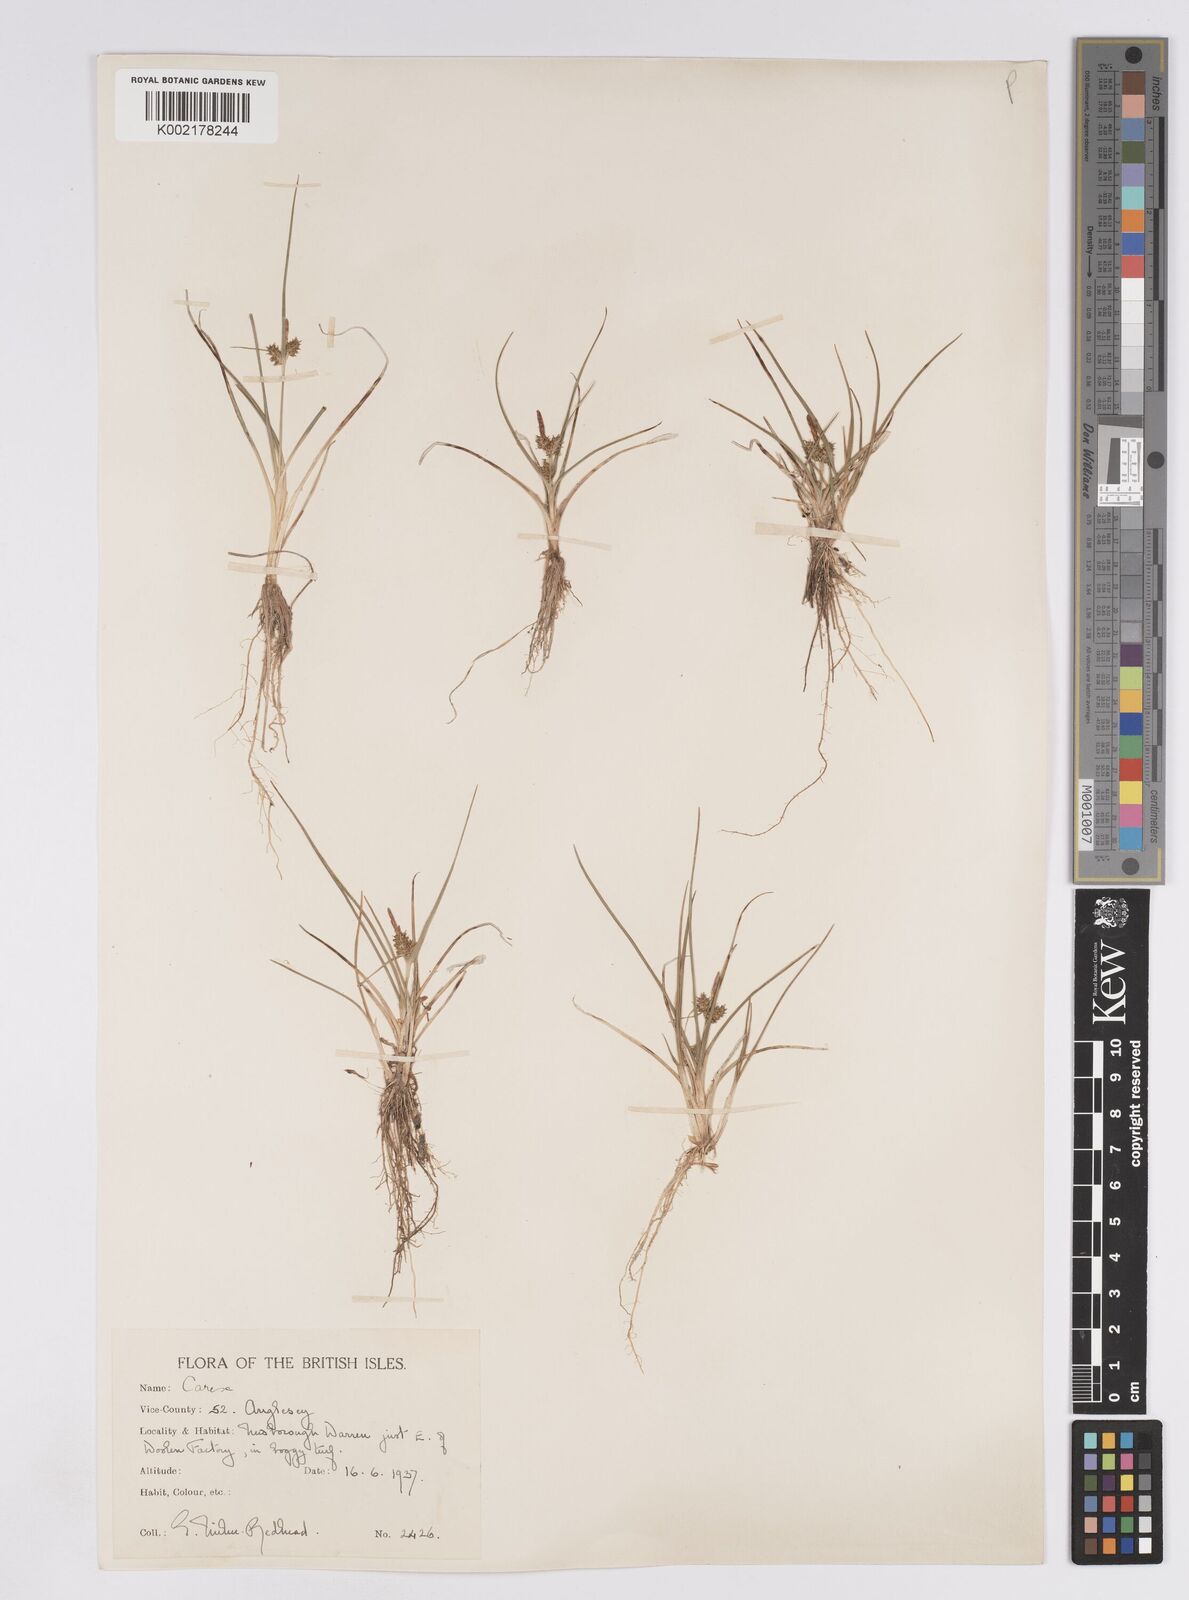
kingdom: Plantae
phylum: Tracheophyta
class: Liliopsida
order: Poales
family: Cyperaceae
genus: Carex
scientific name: Carex demissa
